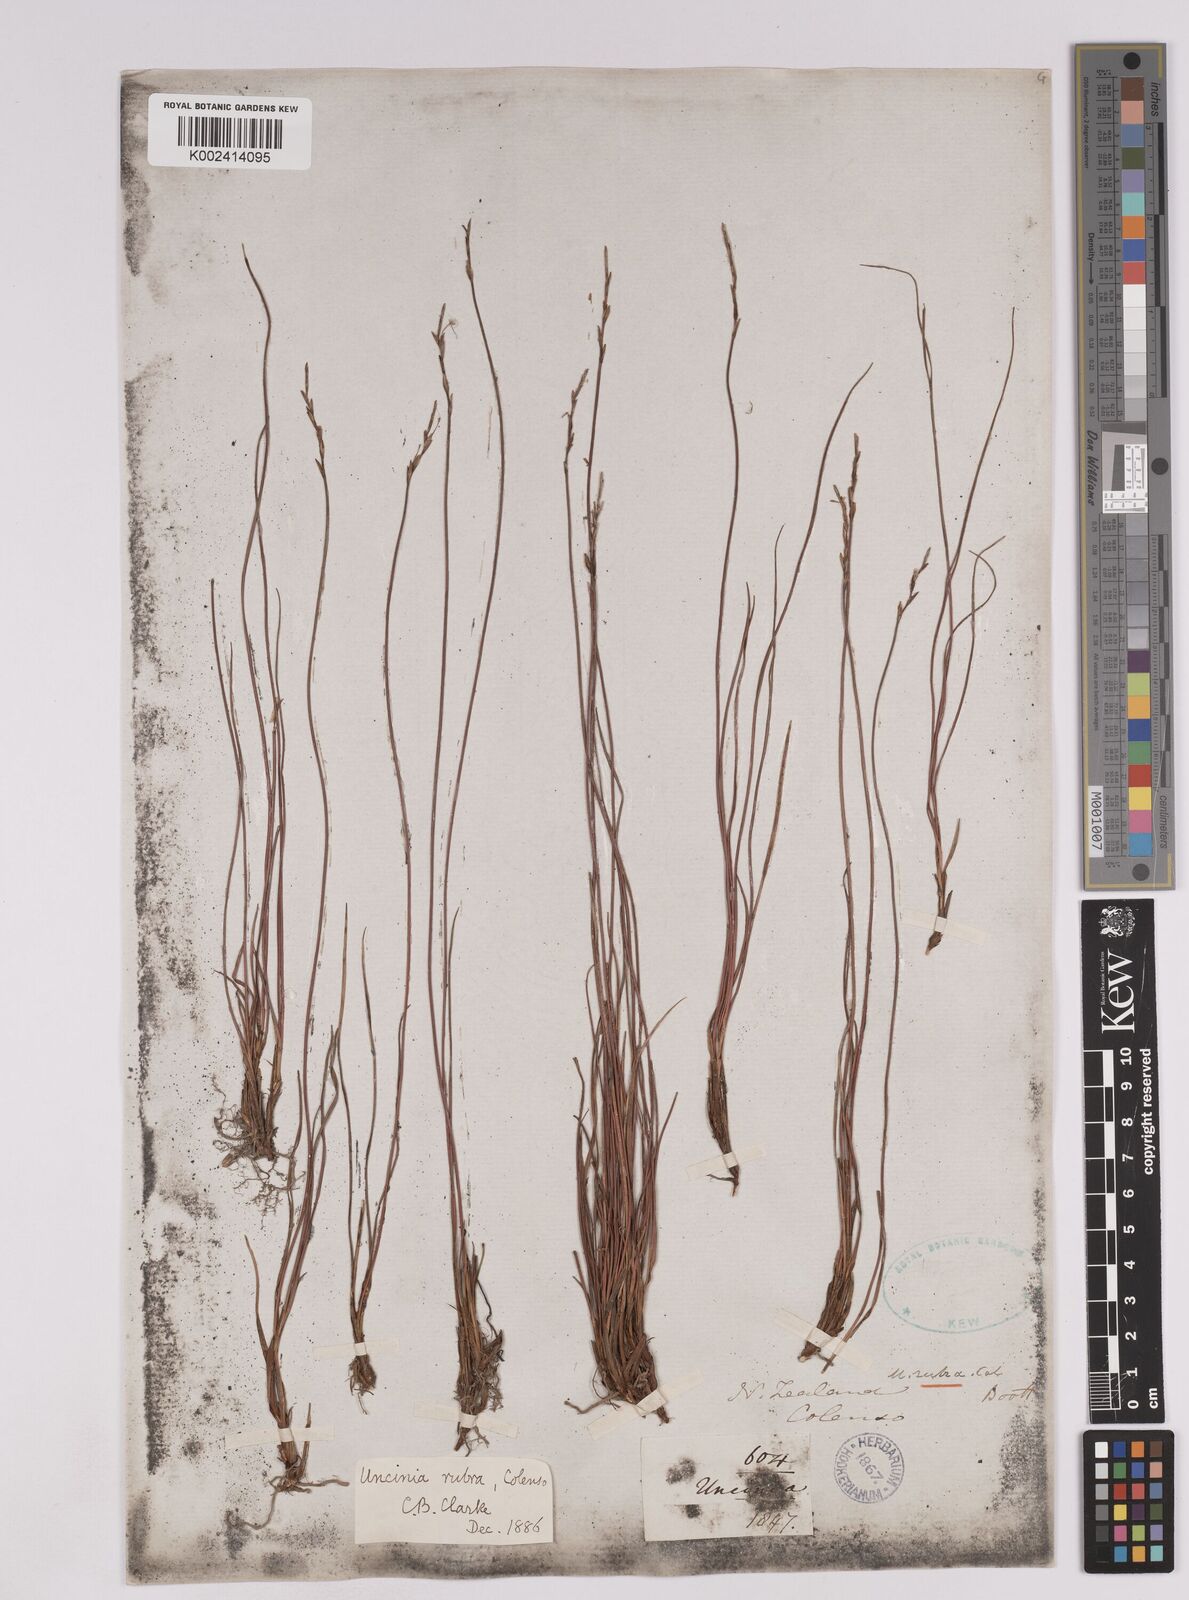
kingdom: Plantae
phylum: Tracheophyta
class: Liliopsida
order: Poales
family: Cyperaceae
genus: Carex
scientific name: Carex punicea
